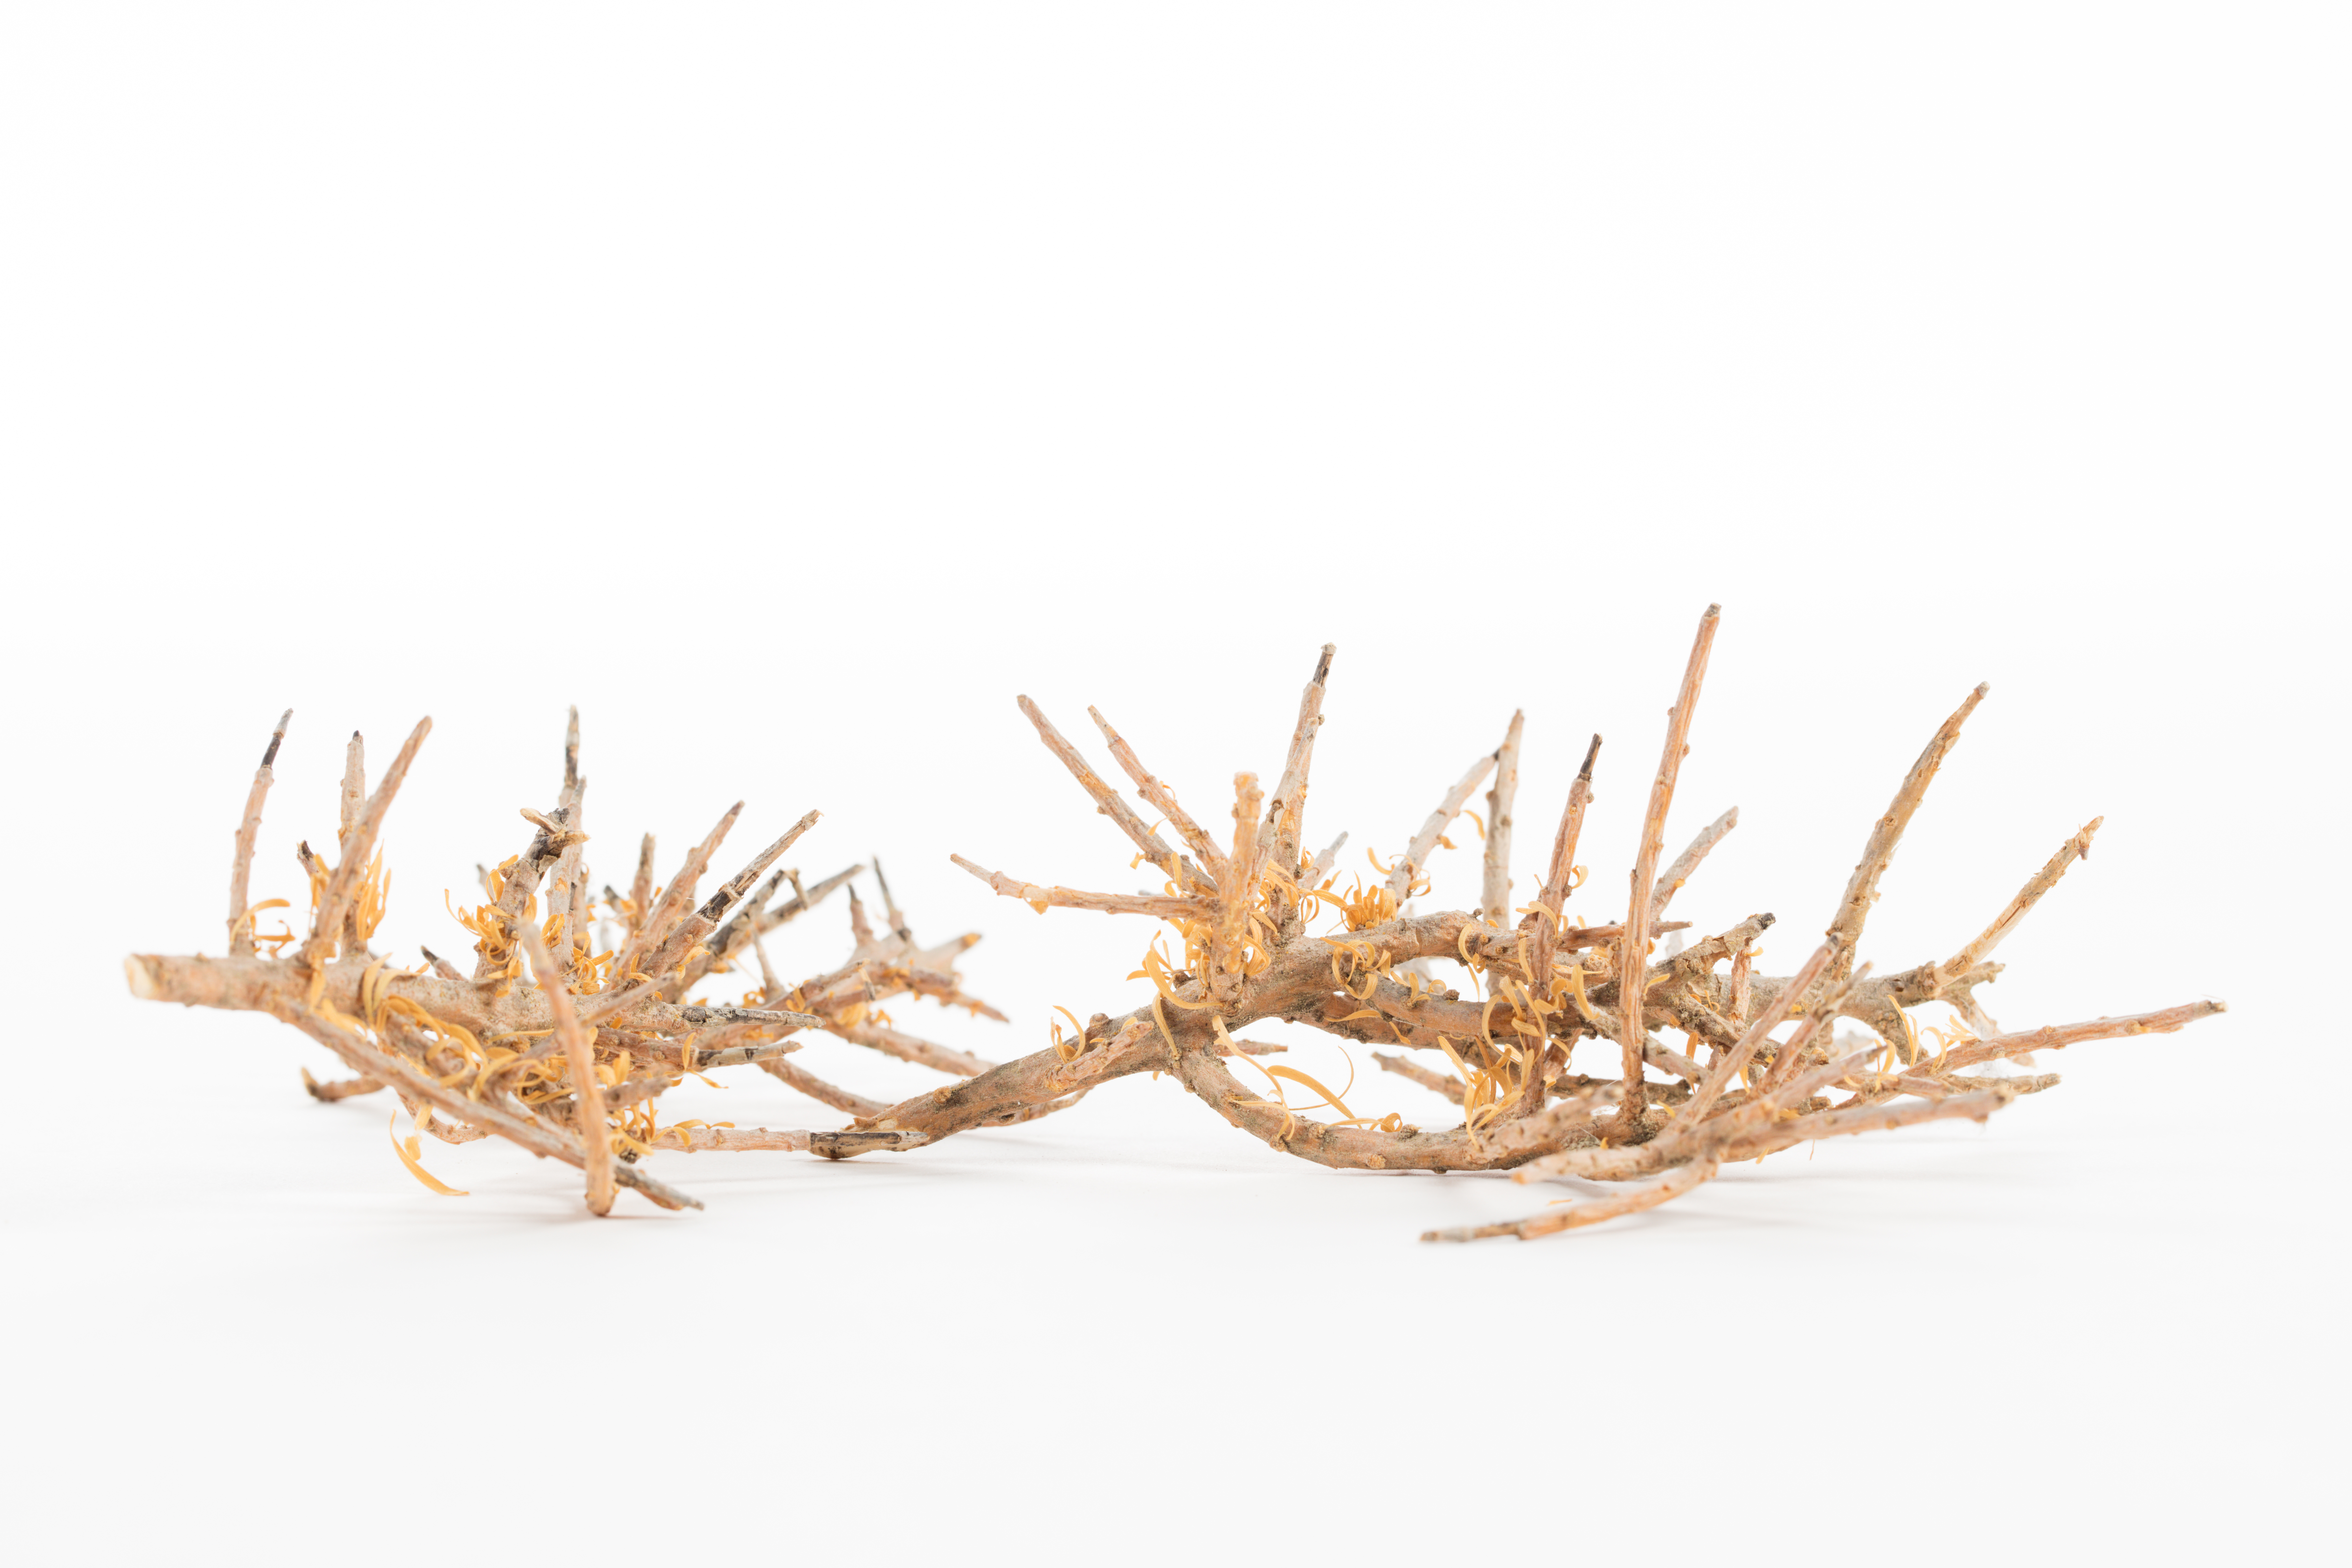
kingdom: Plantae
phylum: Tracheophyta
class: Magnoliopsida
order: Malpighiales
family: Violaceae
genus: Melicytus
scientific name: Melicytus
